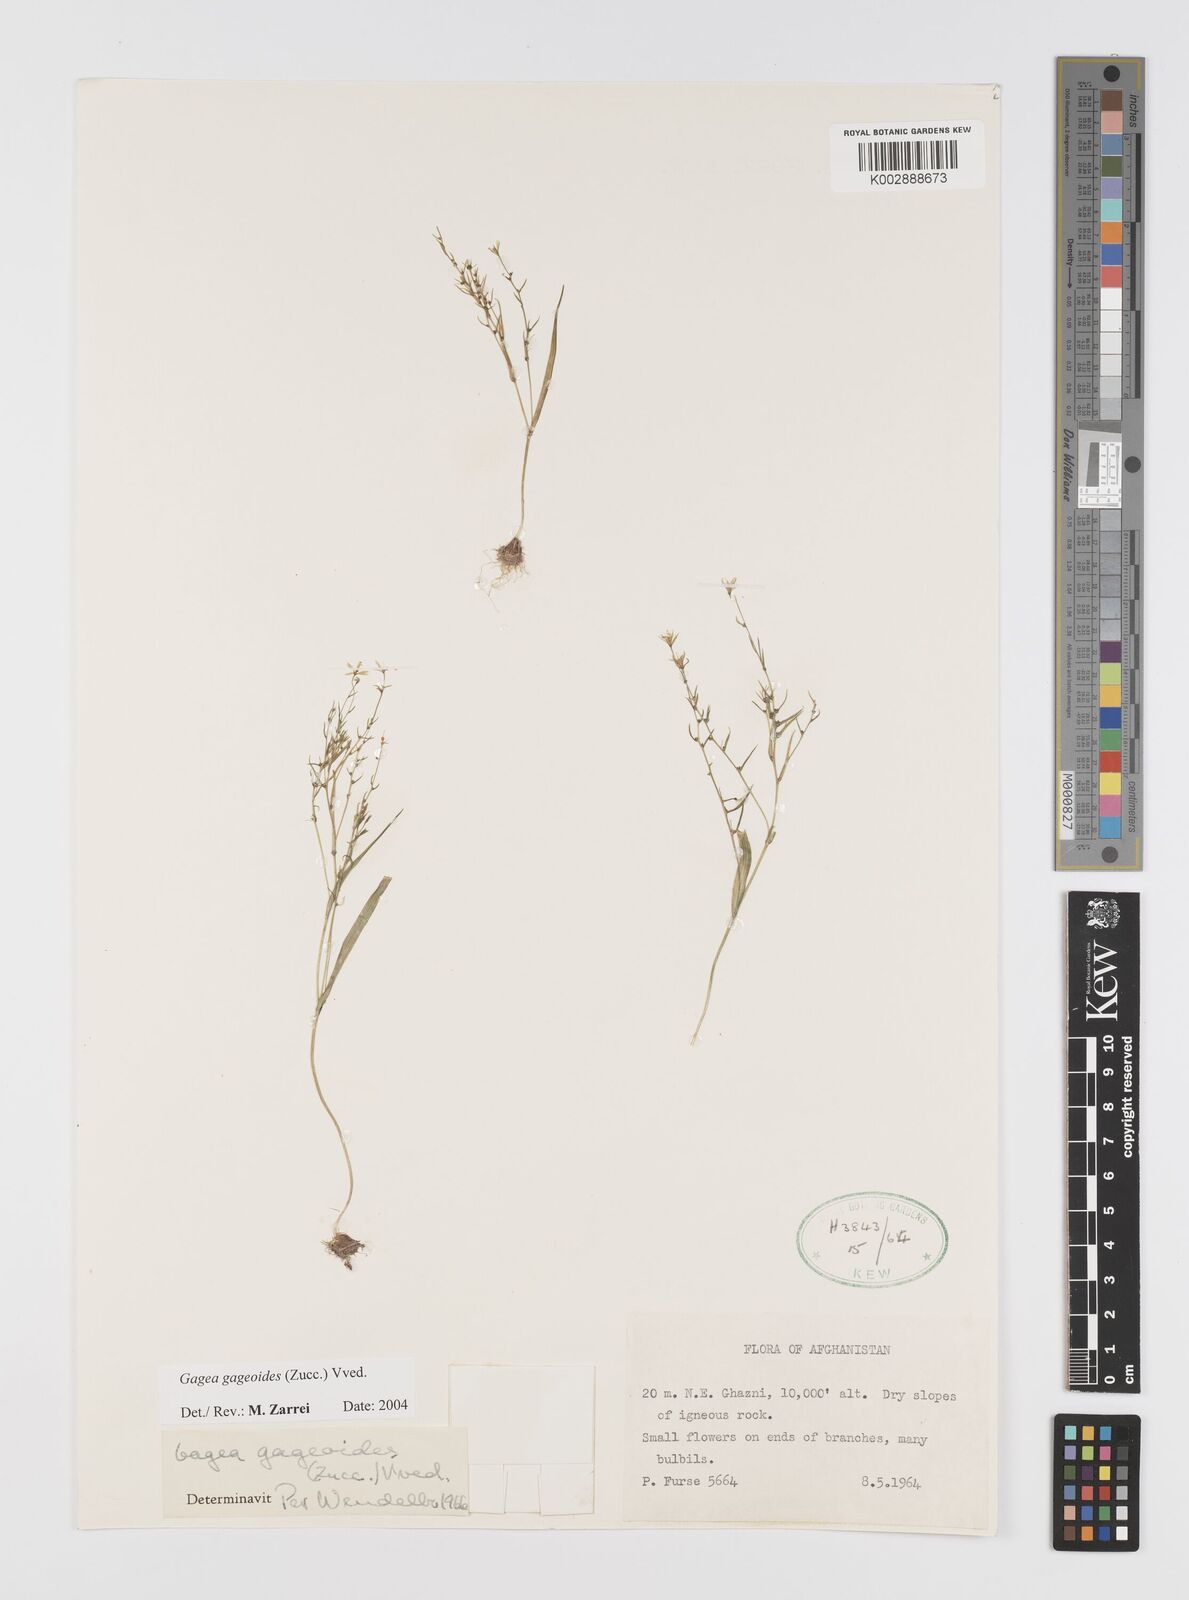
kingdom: Plantae
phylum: Tracheophyta
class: Liliopsida
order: Liliales
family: Liliaceae
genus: Gagea
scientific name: Gagea gageoides
